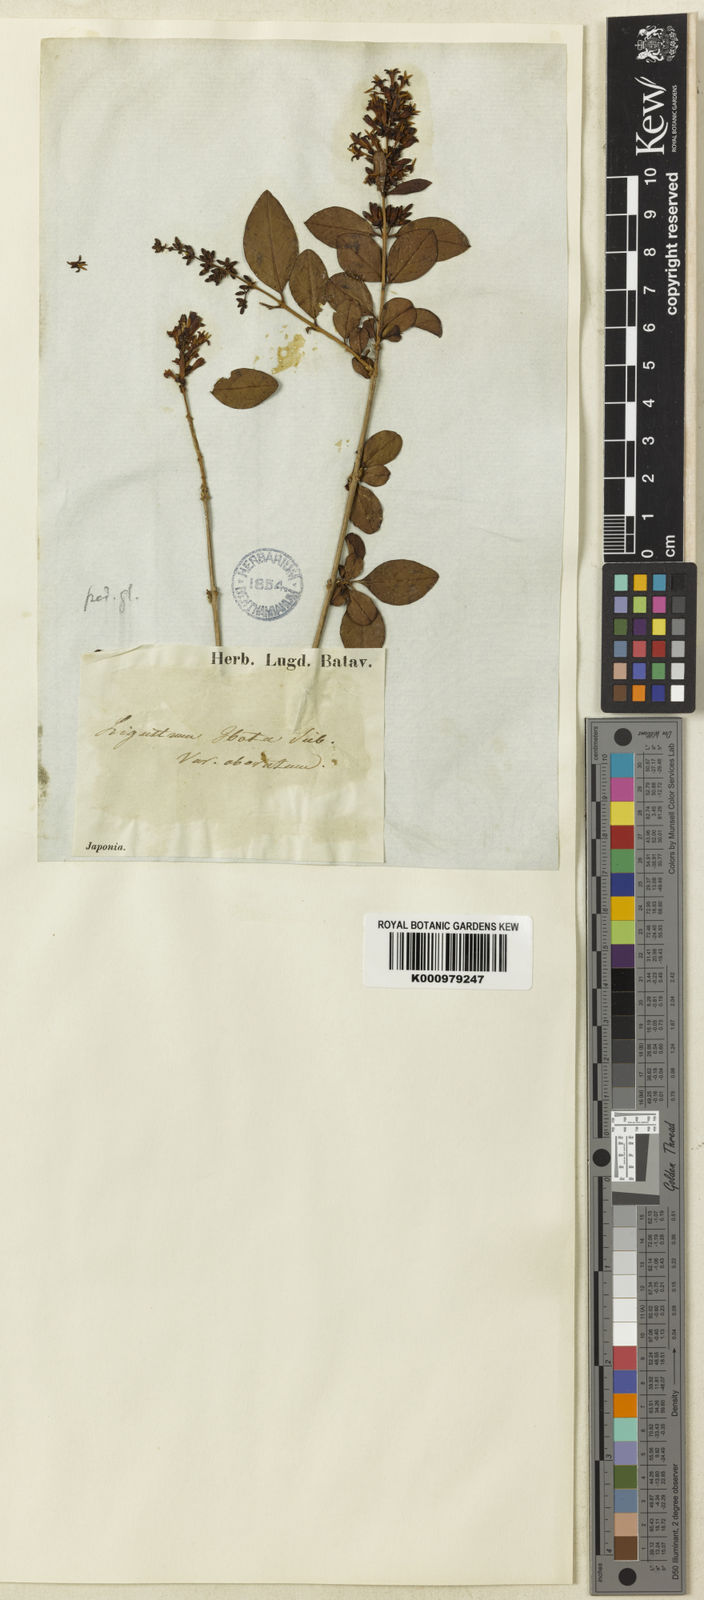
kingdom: Plantae
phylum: Tracheophyta
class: Magnoliopsida
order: Lamiales
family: Oleaceae
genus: Ligustrum
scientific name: Ligustrum tschonoskii
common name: Tschonosky privet
